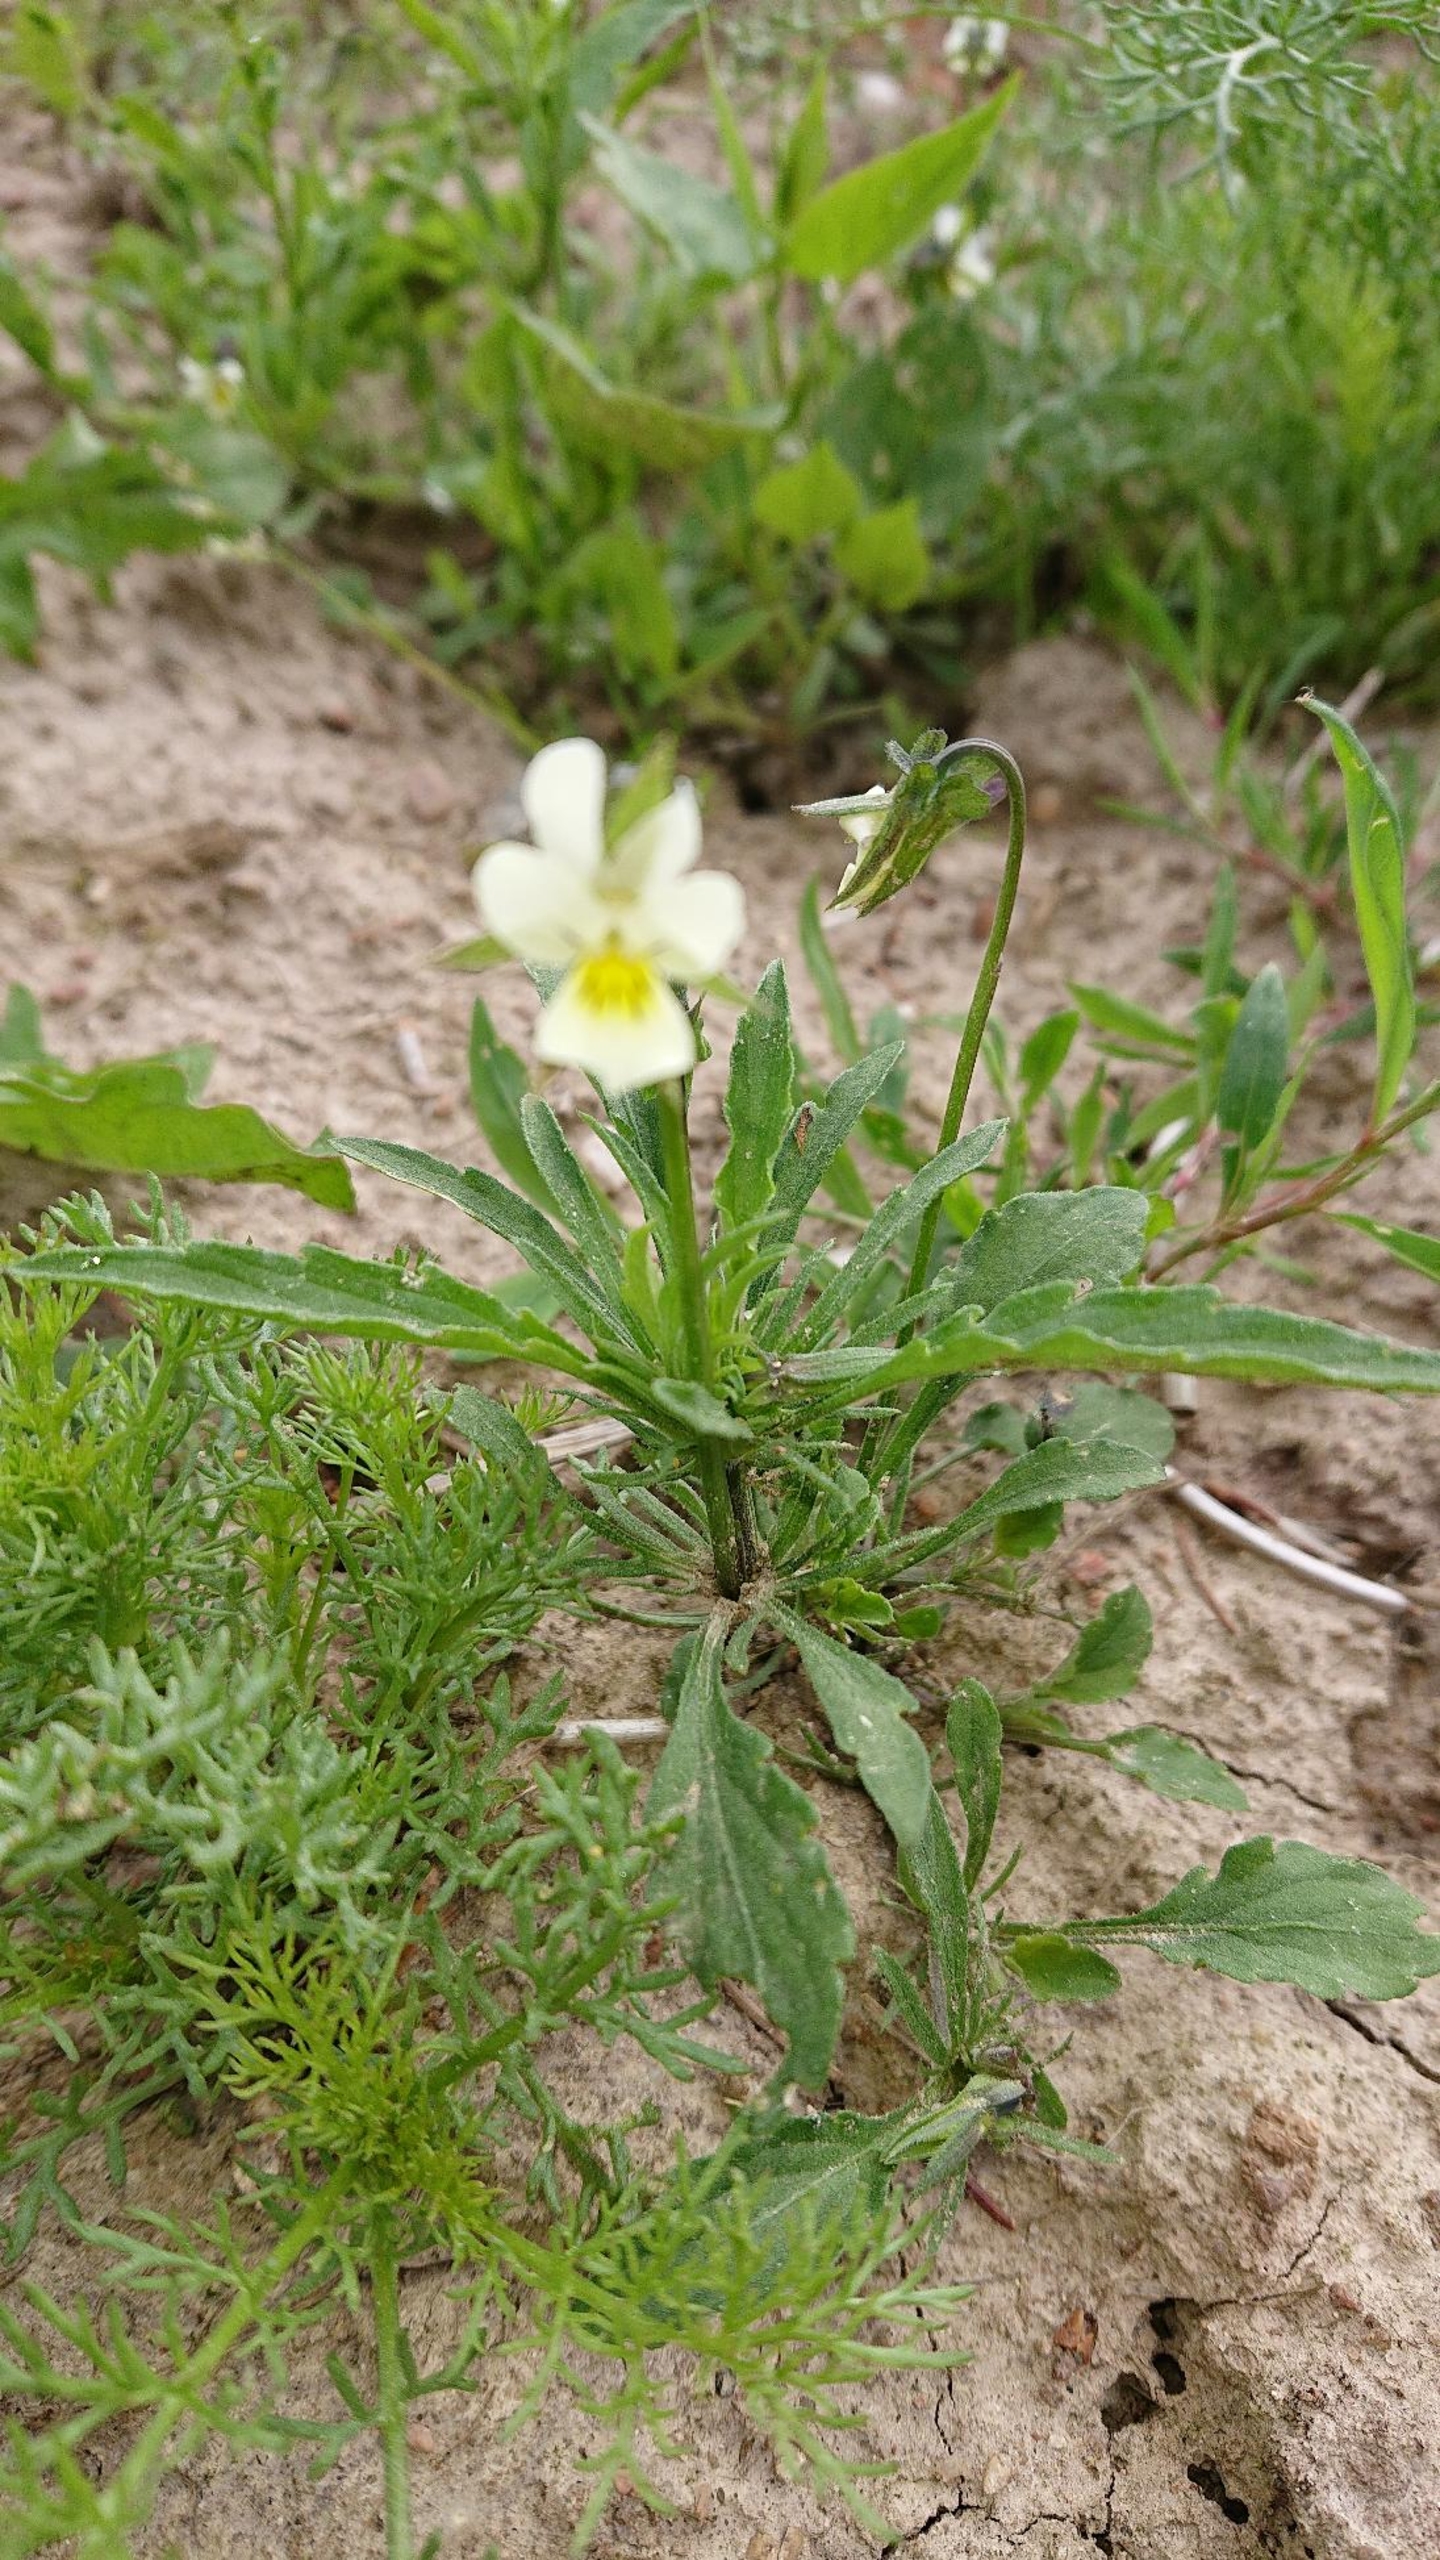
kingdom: Plantae
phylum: Tracheophyta
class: Magnoliopsida
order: Malpighiales
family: Violaceae
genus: Viola
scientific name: Viola arvensis
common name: Ager-stedmoderblomst
